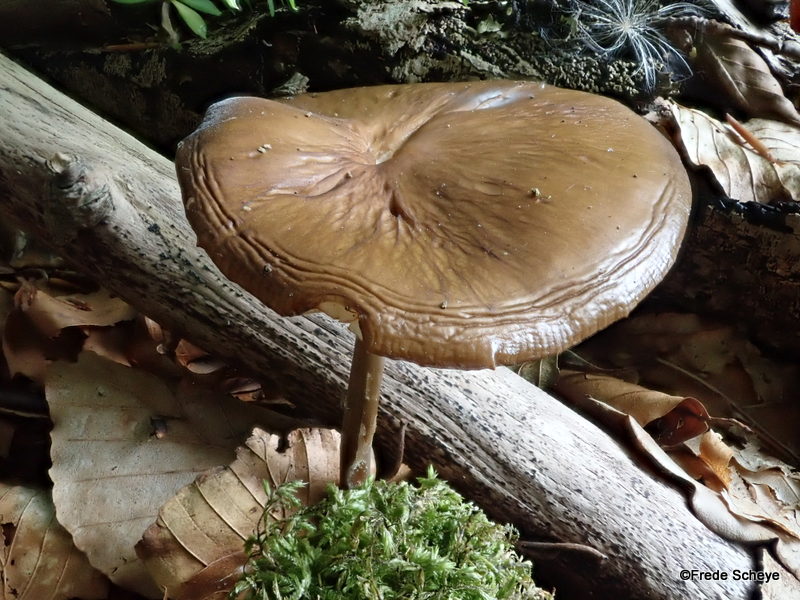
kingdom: Fungi
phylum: Basidiomycota
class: Agaricomycetes
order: Agaricales
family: Physalacriaceae
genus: Hymenopellis
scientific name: Hymenopellis radicata
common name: almindelig pælerodshat
